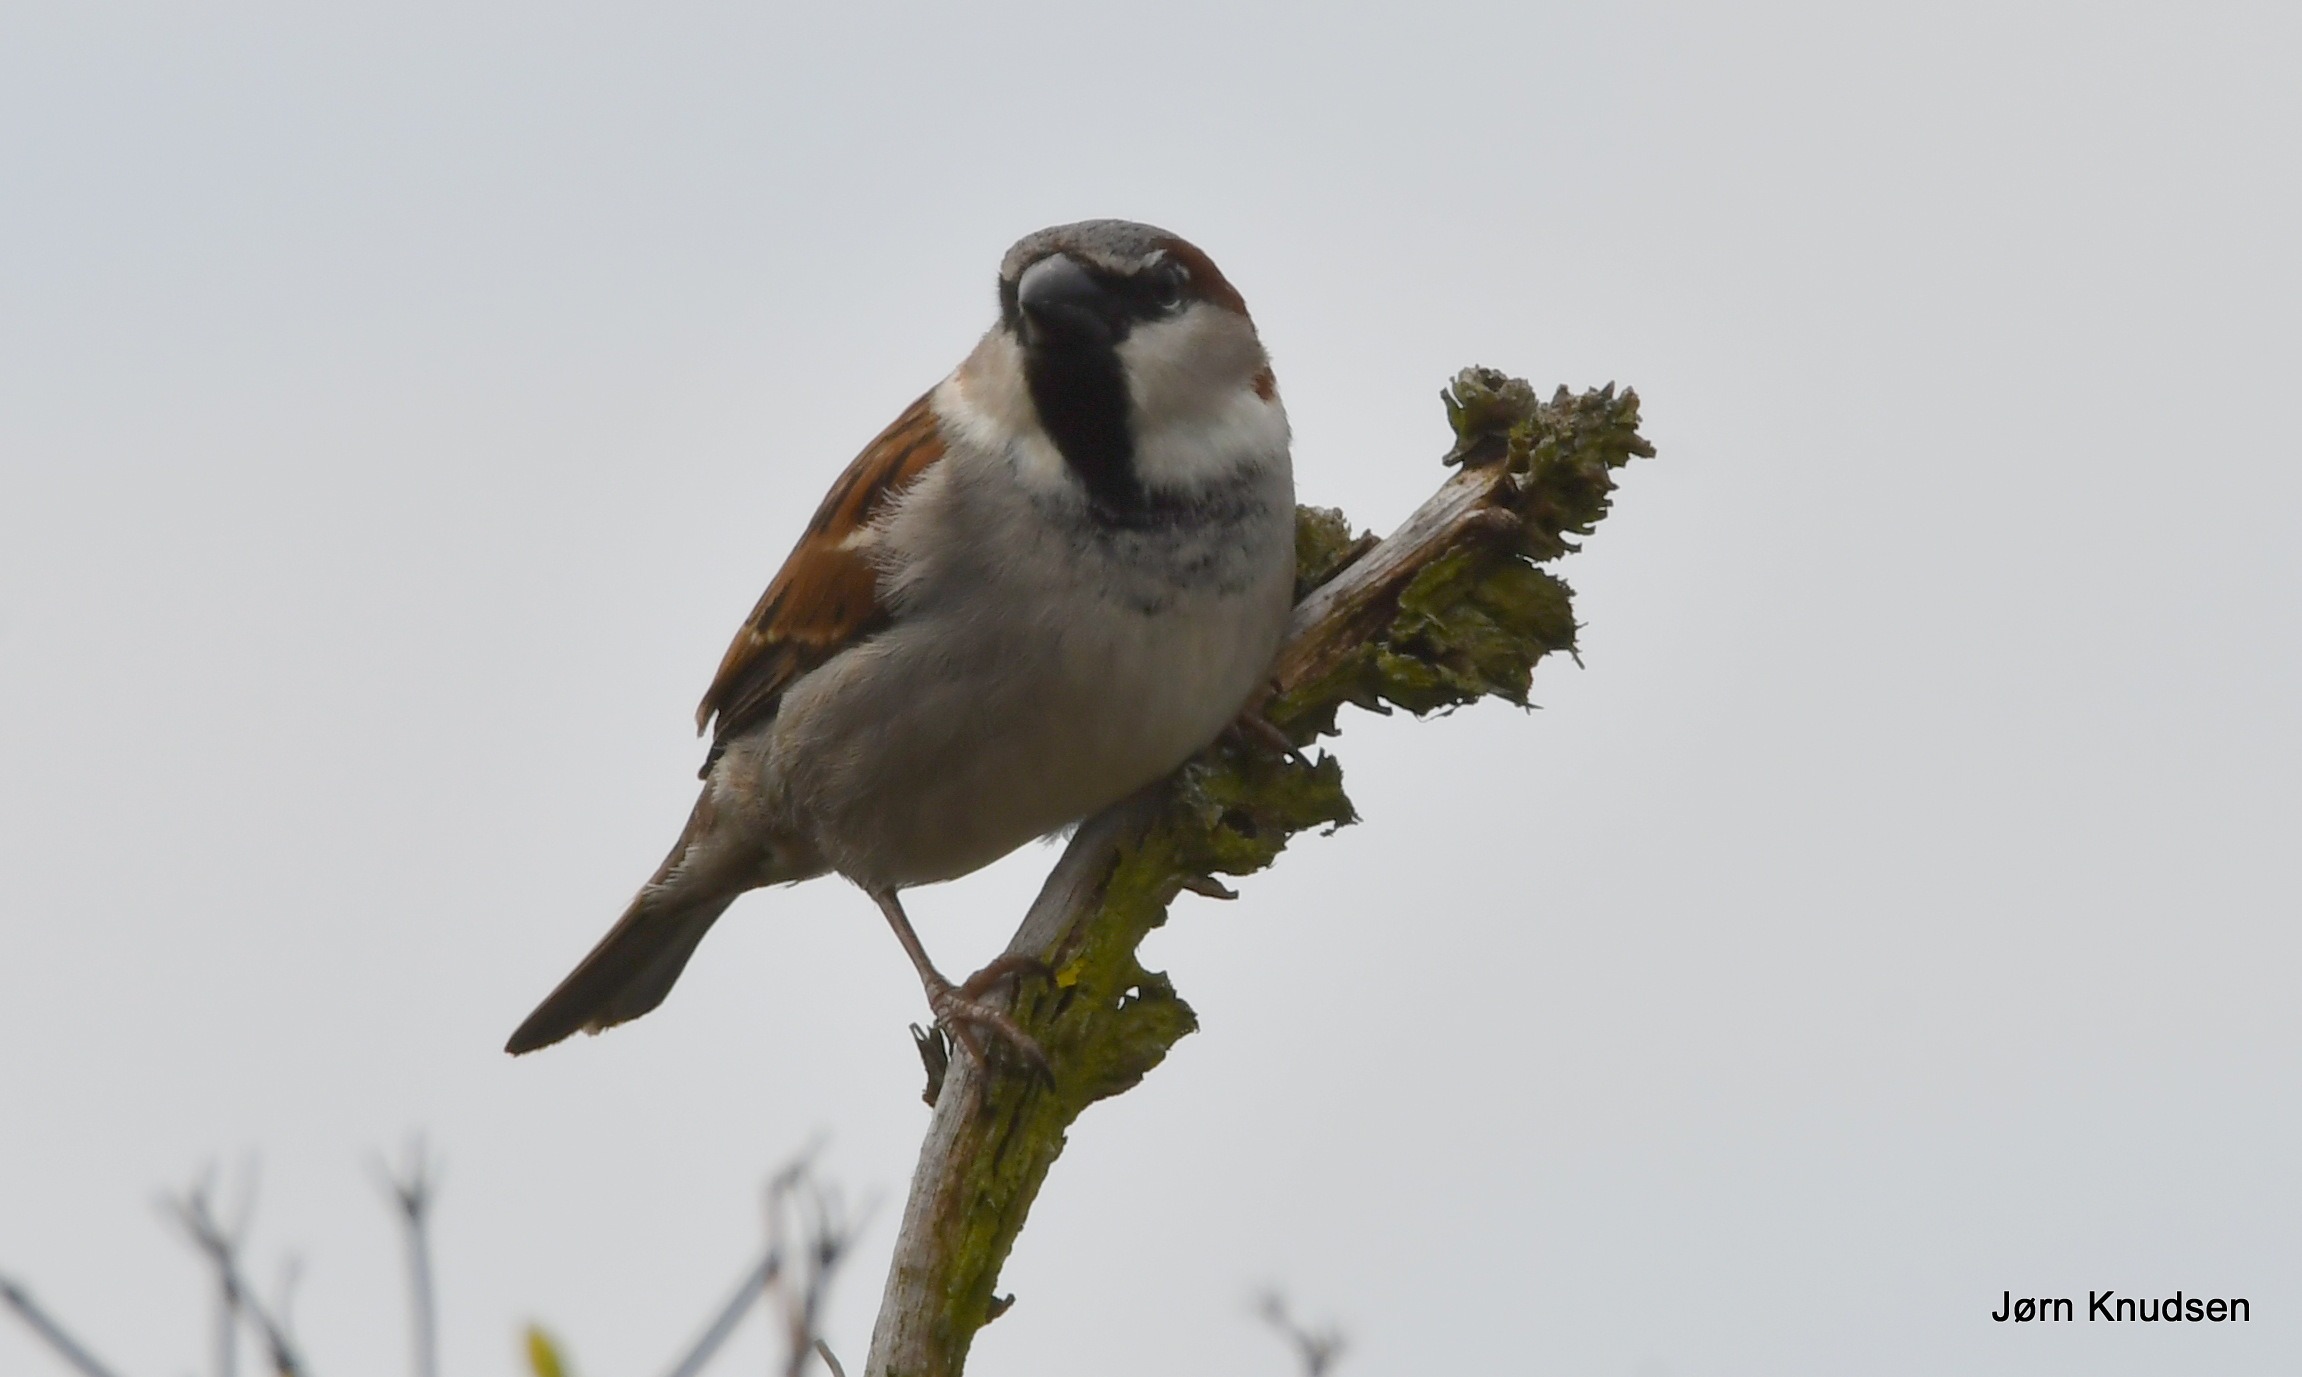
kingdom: Animalia
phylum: Chordata
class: Aves
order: Passeriformes
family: Passeridae
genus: Passer
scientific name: Passer domesticus
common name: Gråspurv
